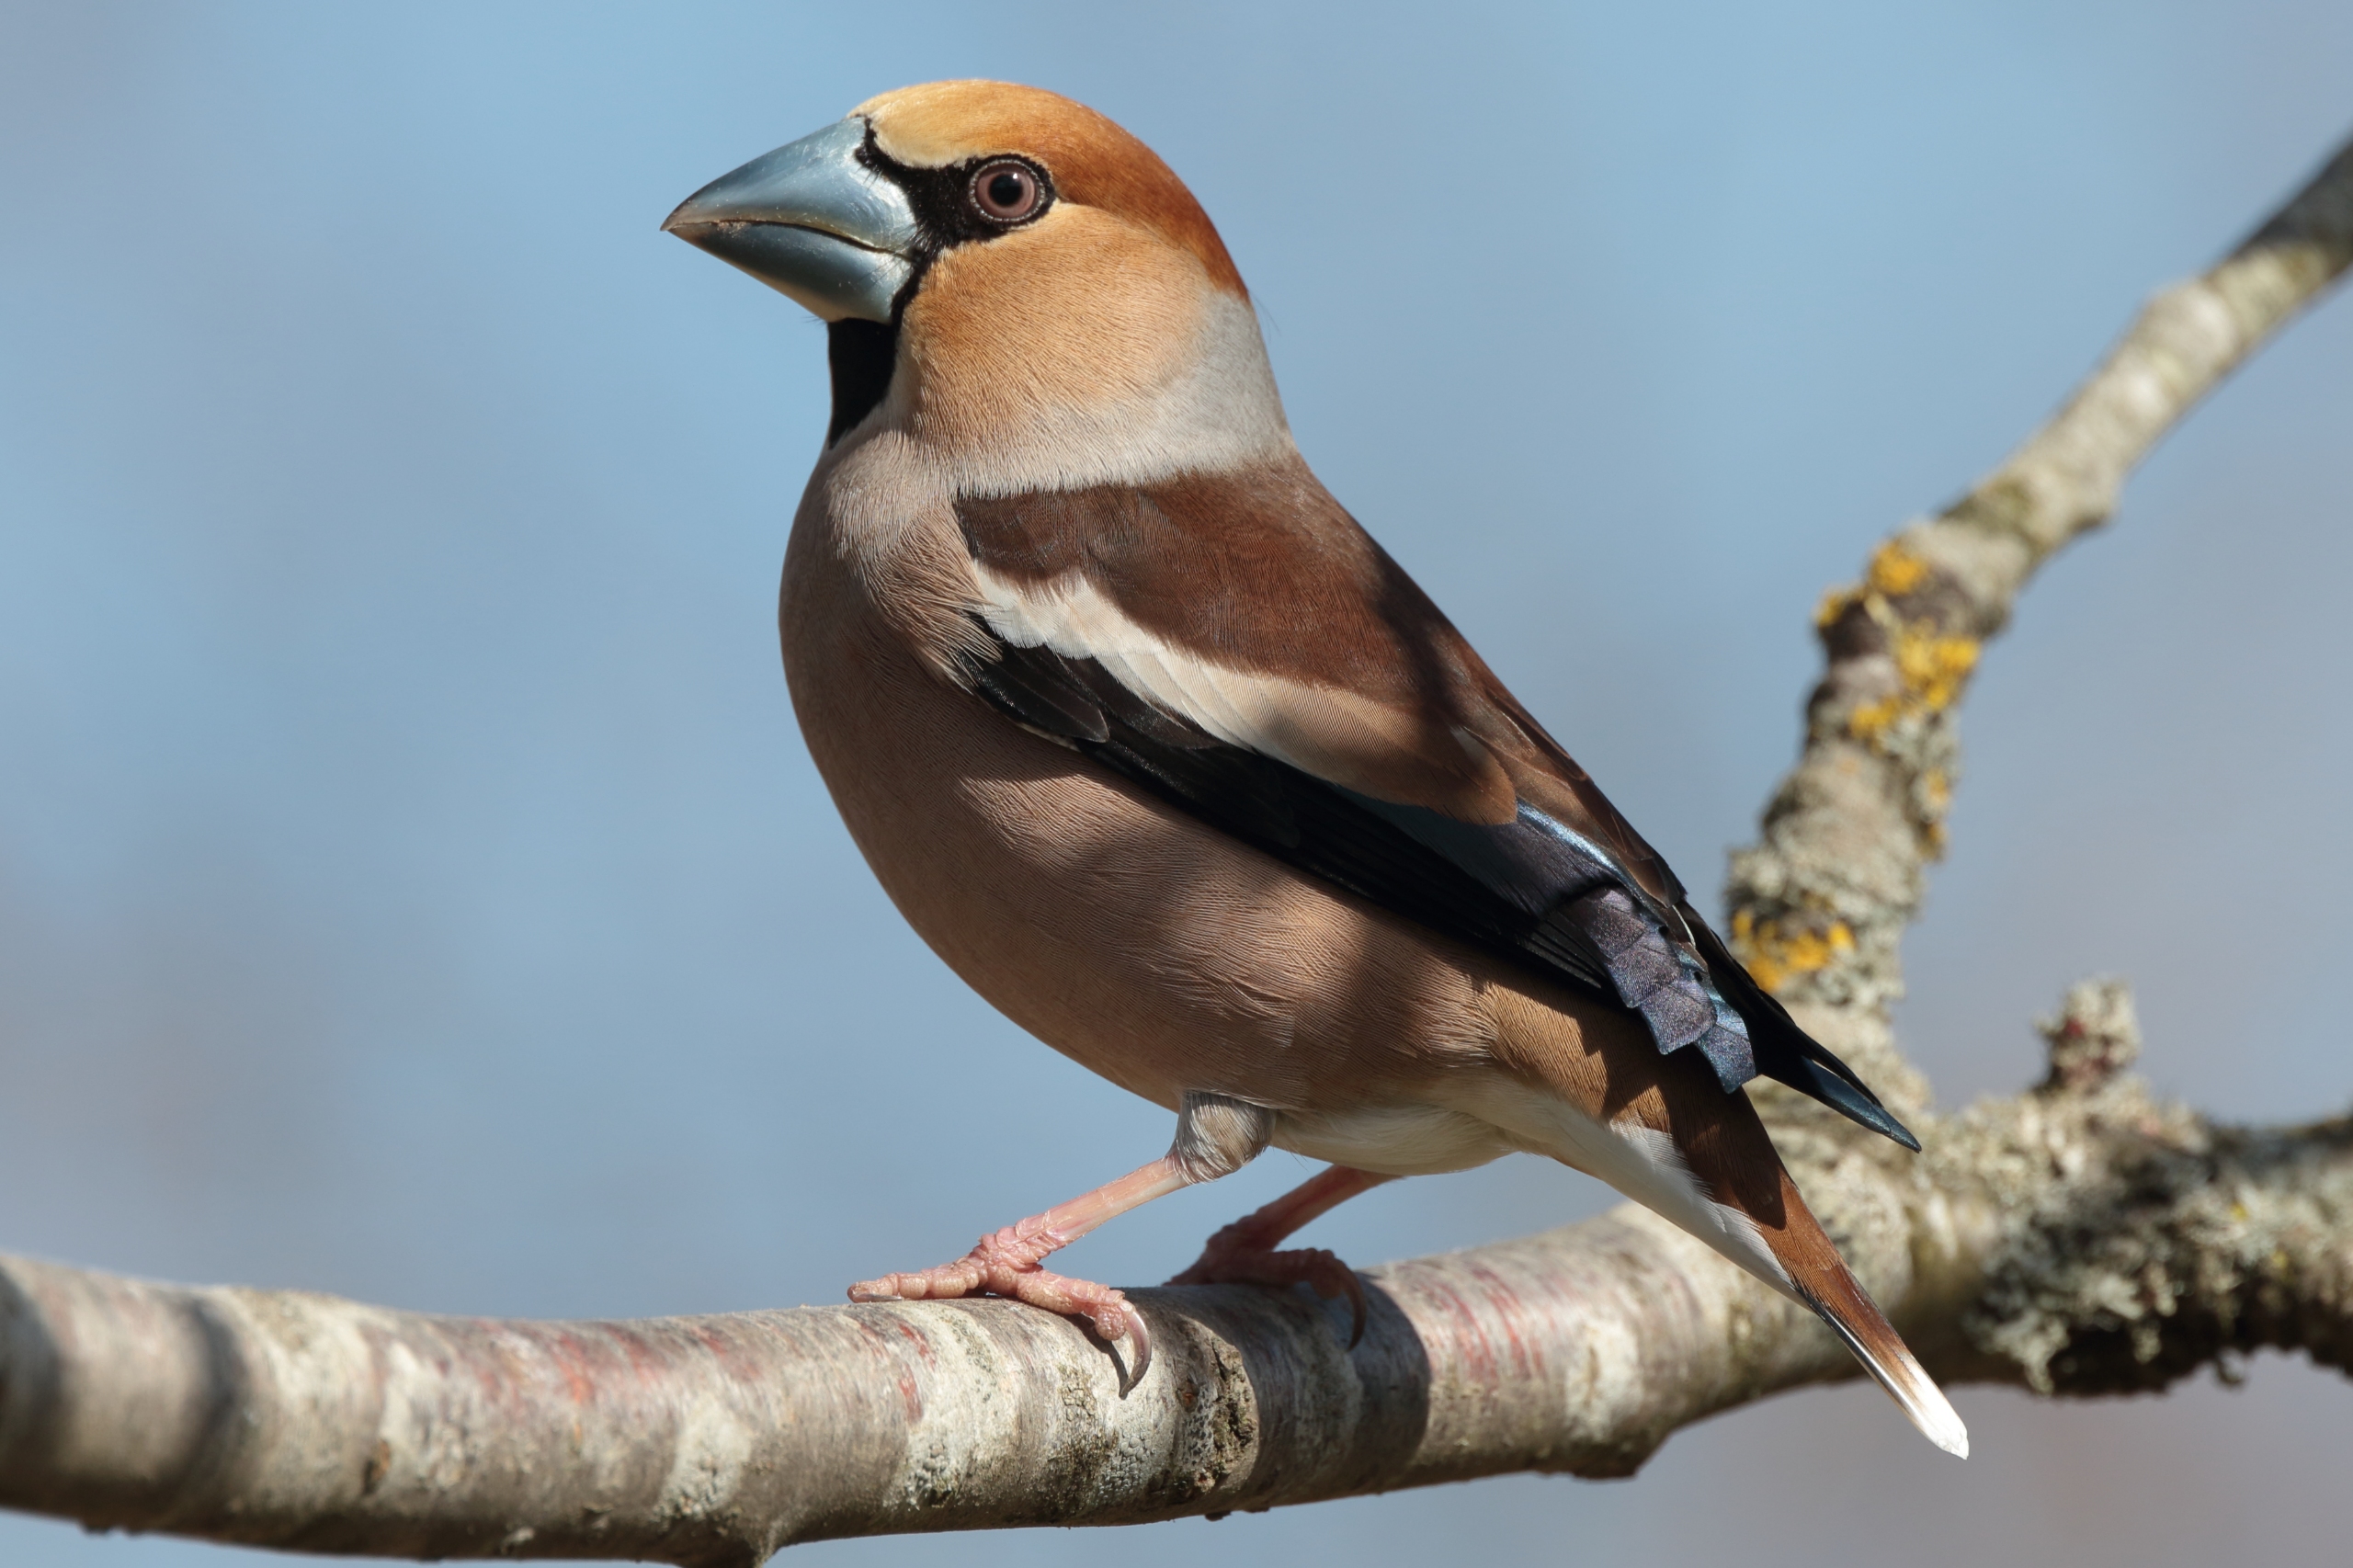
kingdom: Animalia
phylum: Chordata
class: Aves
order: Passeriformes
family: Fringillidae
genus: Coccothraustes
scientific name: Coccothraustes coccothraustes
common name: Kernebider
